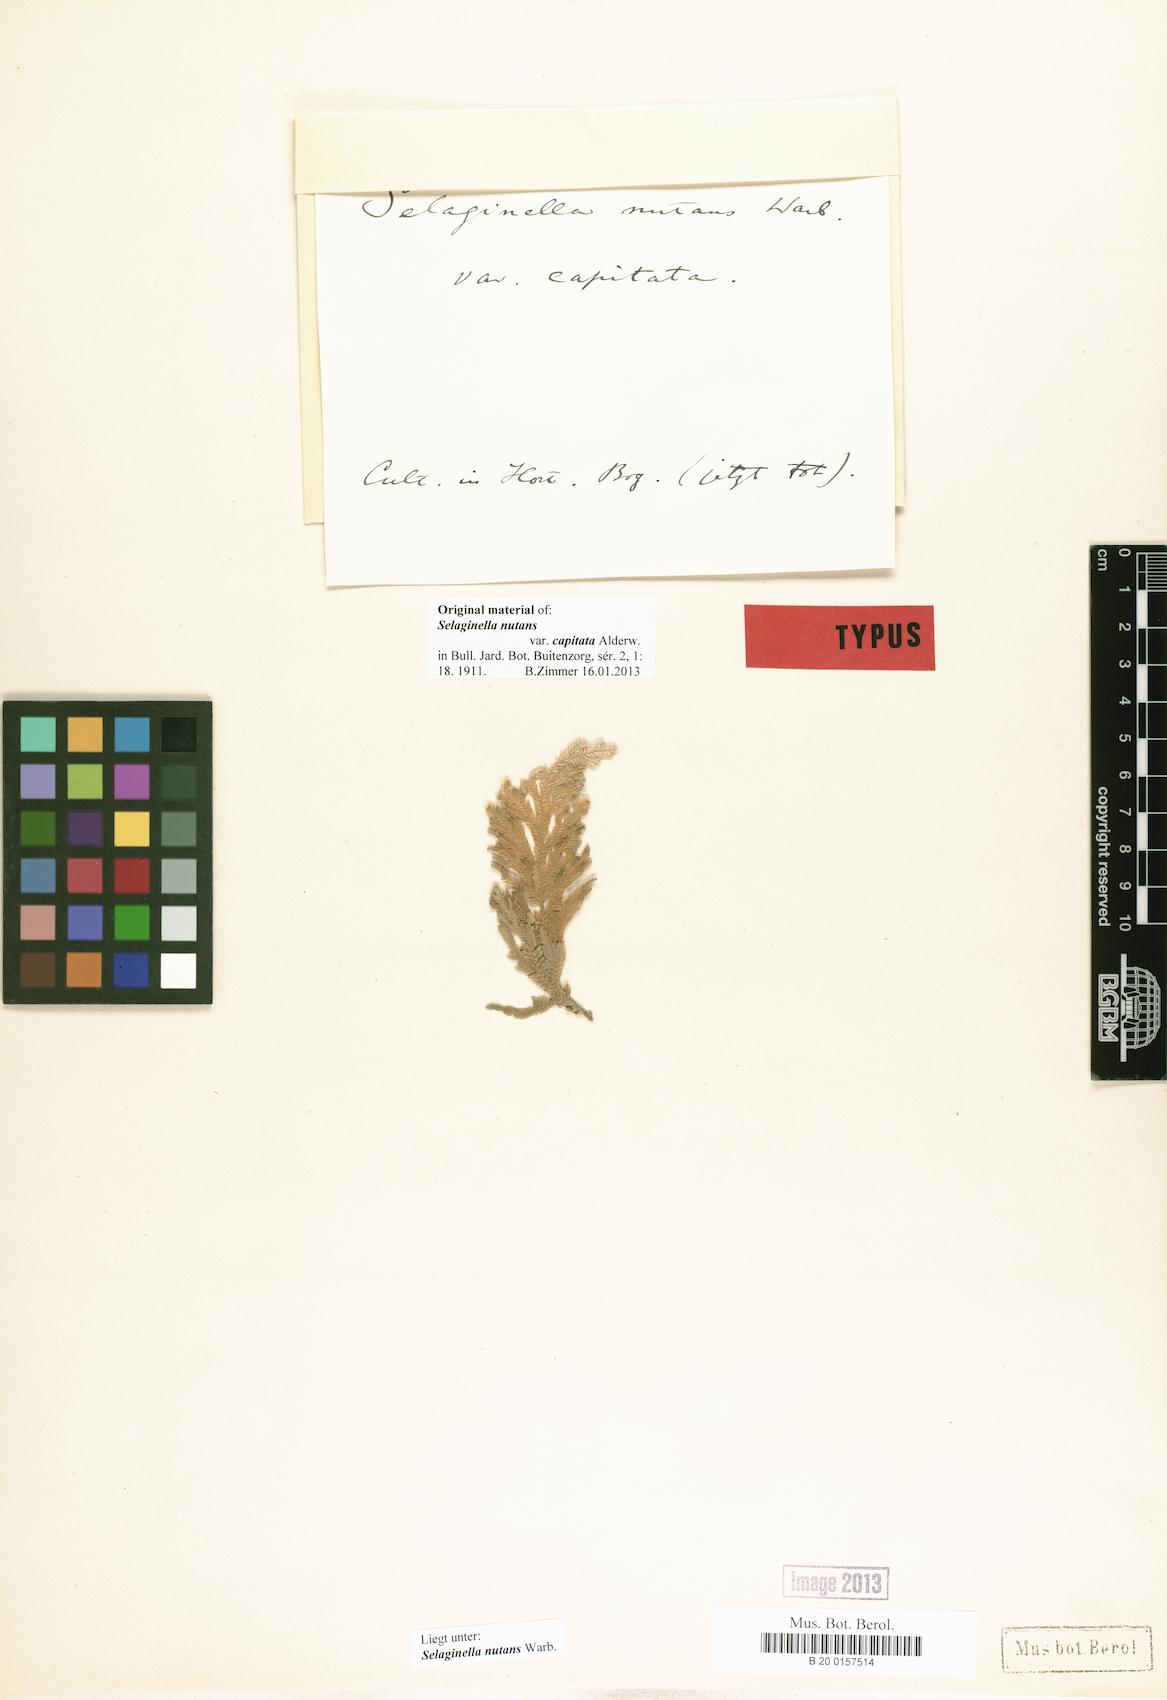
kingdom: Plantae
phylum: Tracheophyta
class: Lycopodiopsida
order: Selaginellales
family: Selaginellaceae
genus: Selaginella
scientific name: Selaginella frondosa
